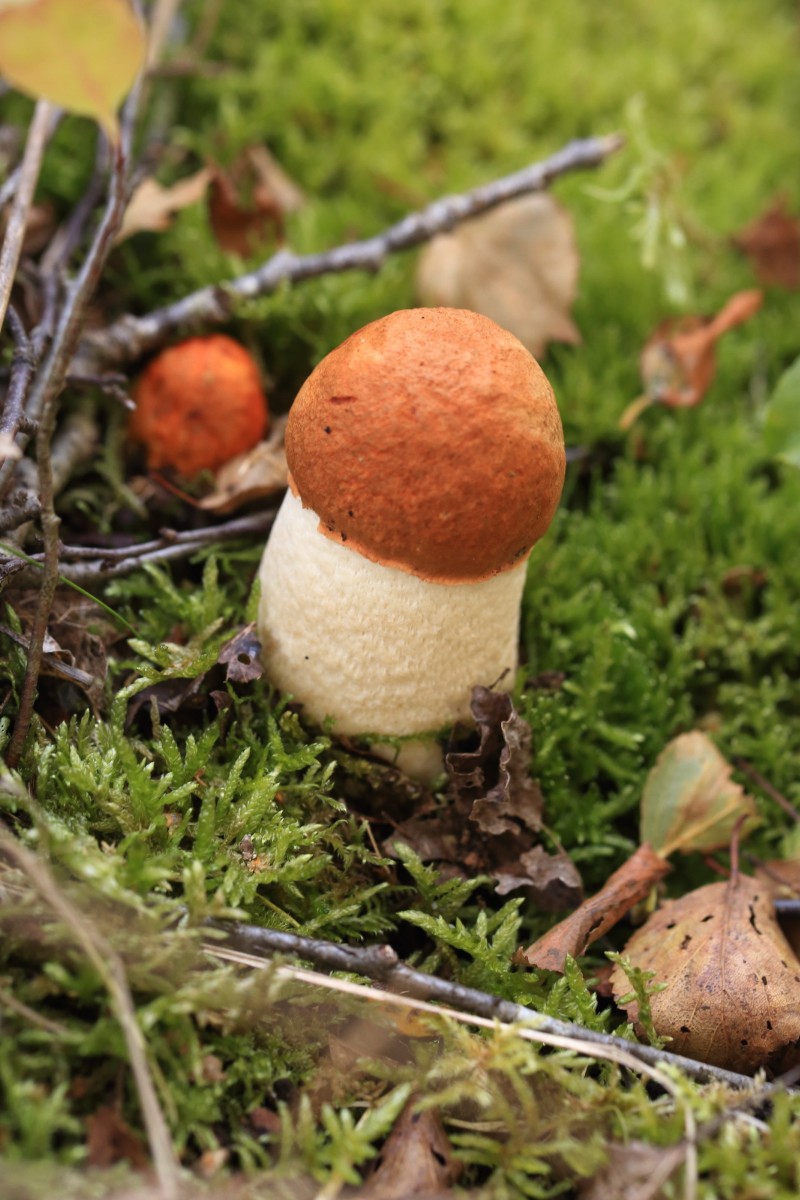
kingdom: Fungi
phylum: Basidiomycota
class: Agaricomycetes
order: Boletales
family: Boletaceae
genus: Leccinum
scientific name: Leccinum albostipitatum
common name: aspe-skælrørhat
